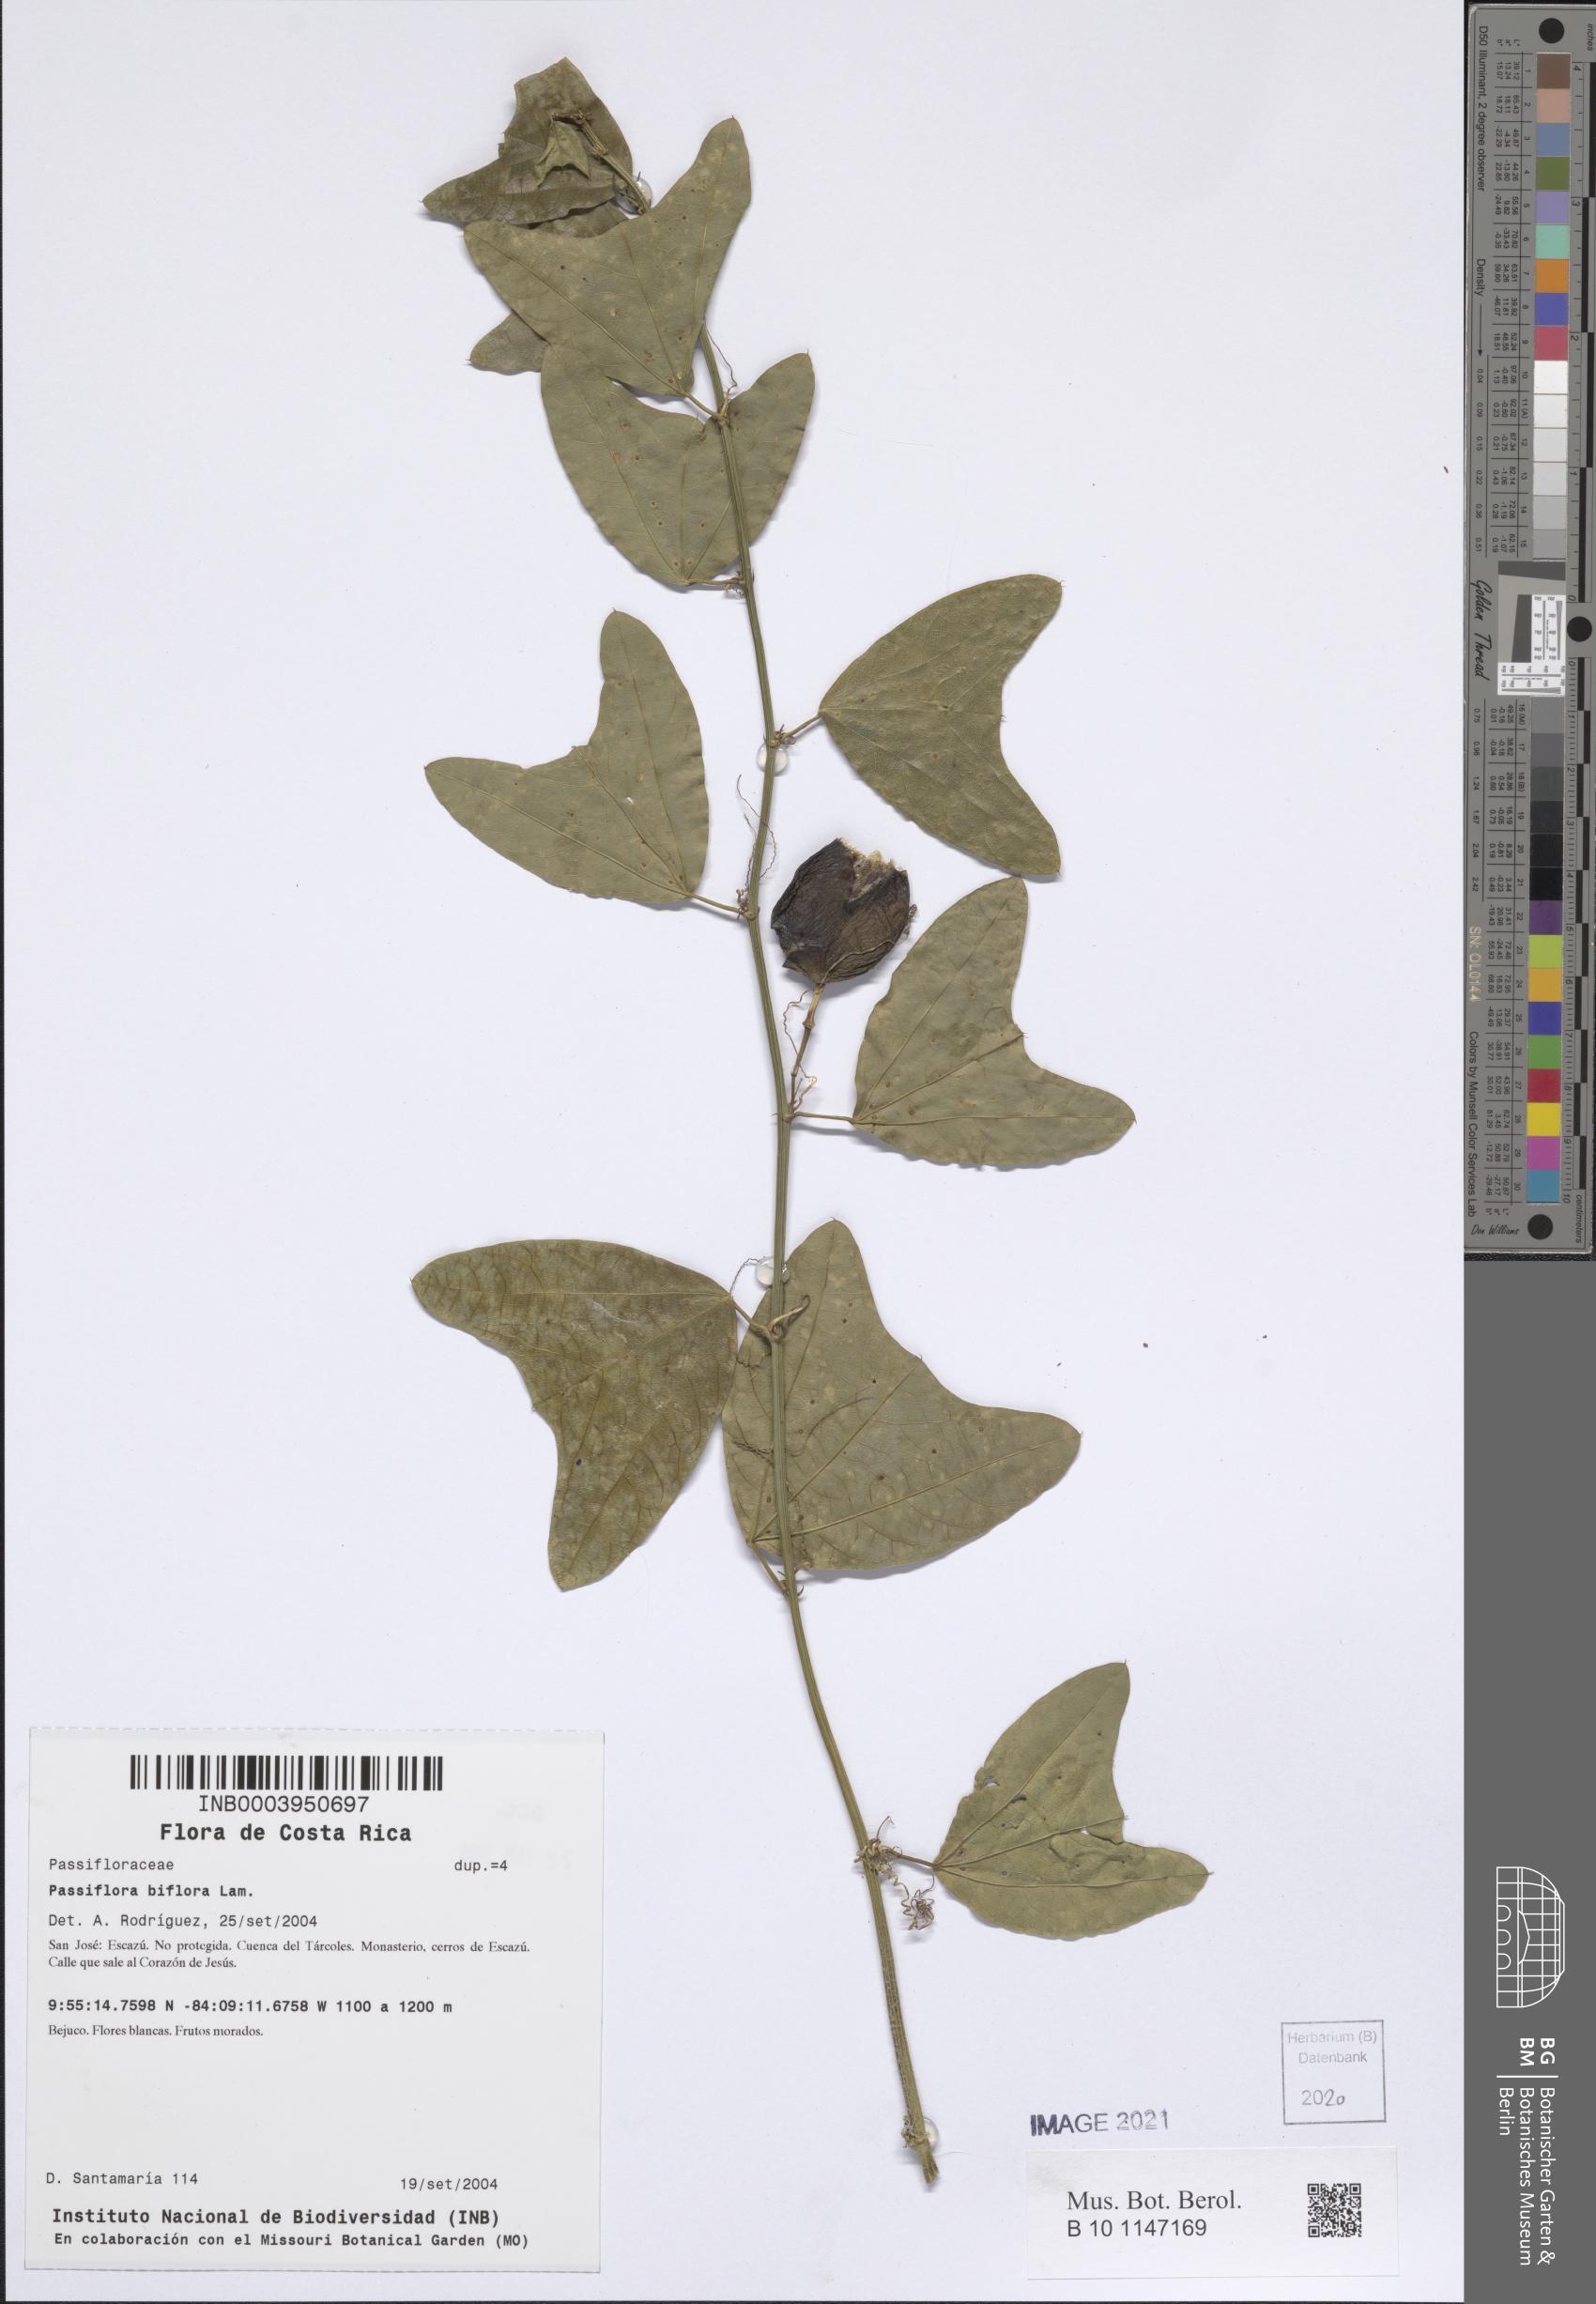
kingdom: Plantae
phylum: Tracheophyta
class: Magnoliopsida
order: Malpighiales
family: Passifloraceae
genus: Passiflora
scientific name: Passiflora biflora
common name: Twoflower passionflower
